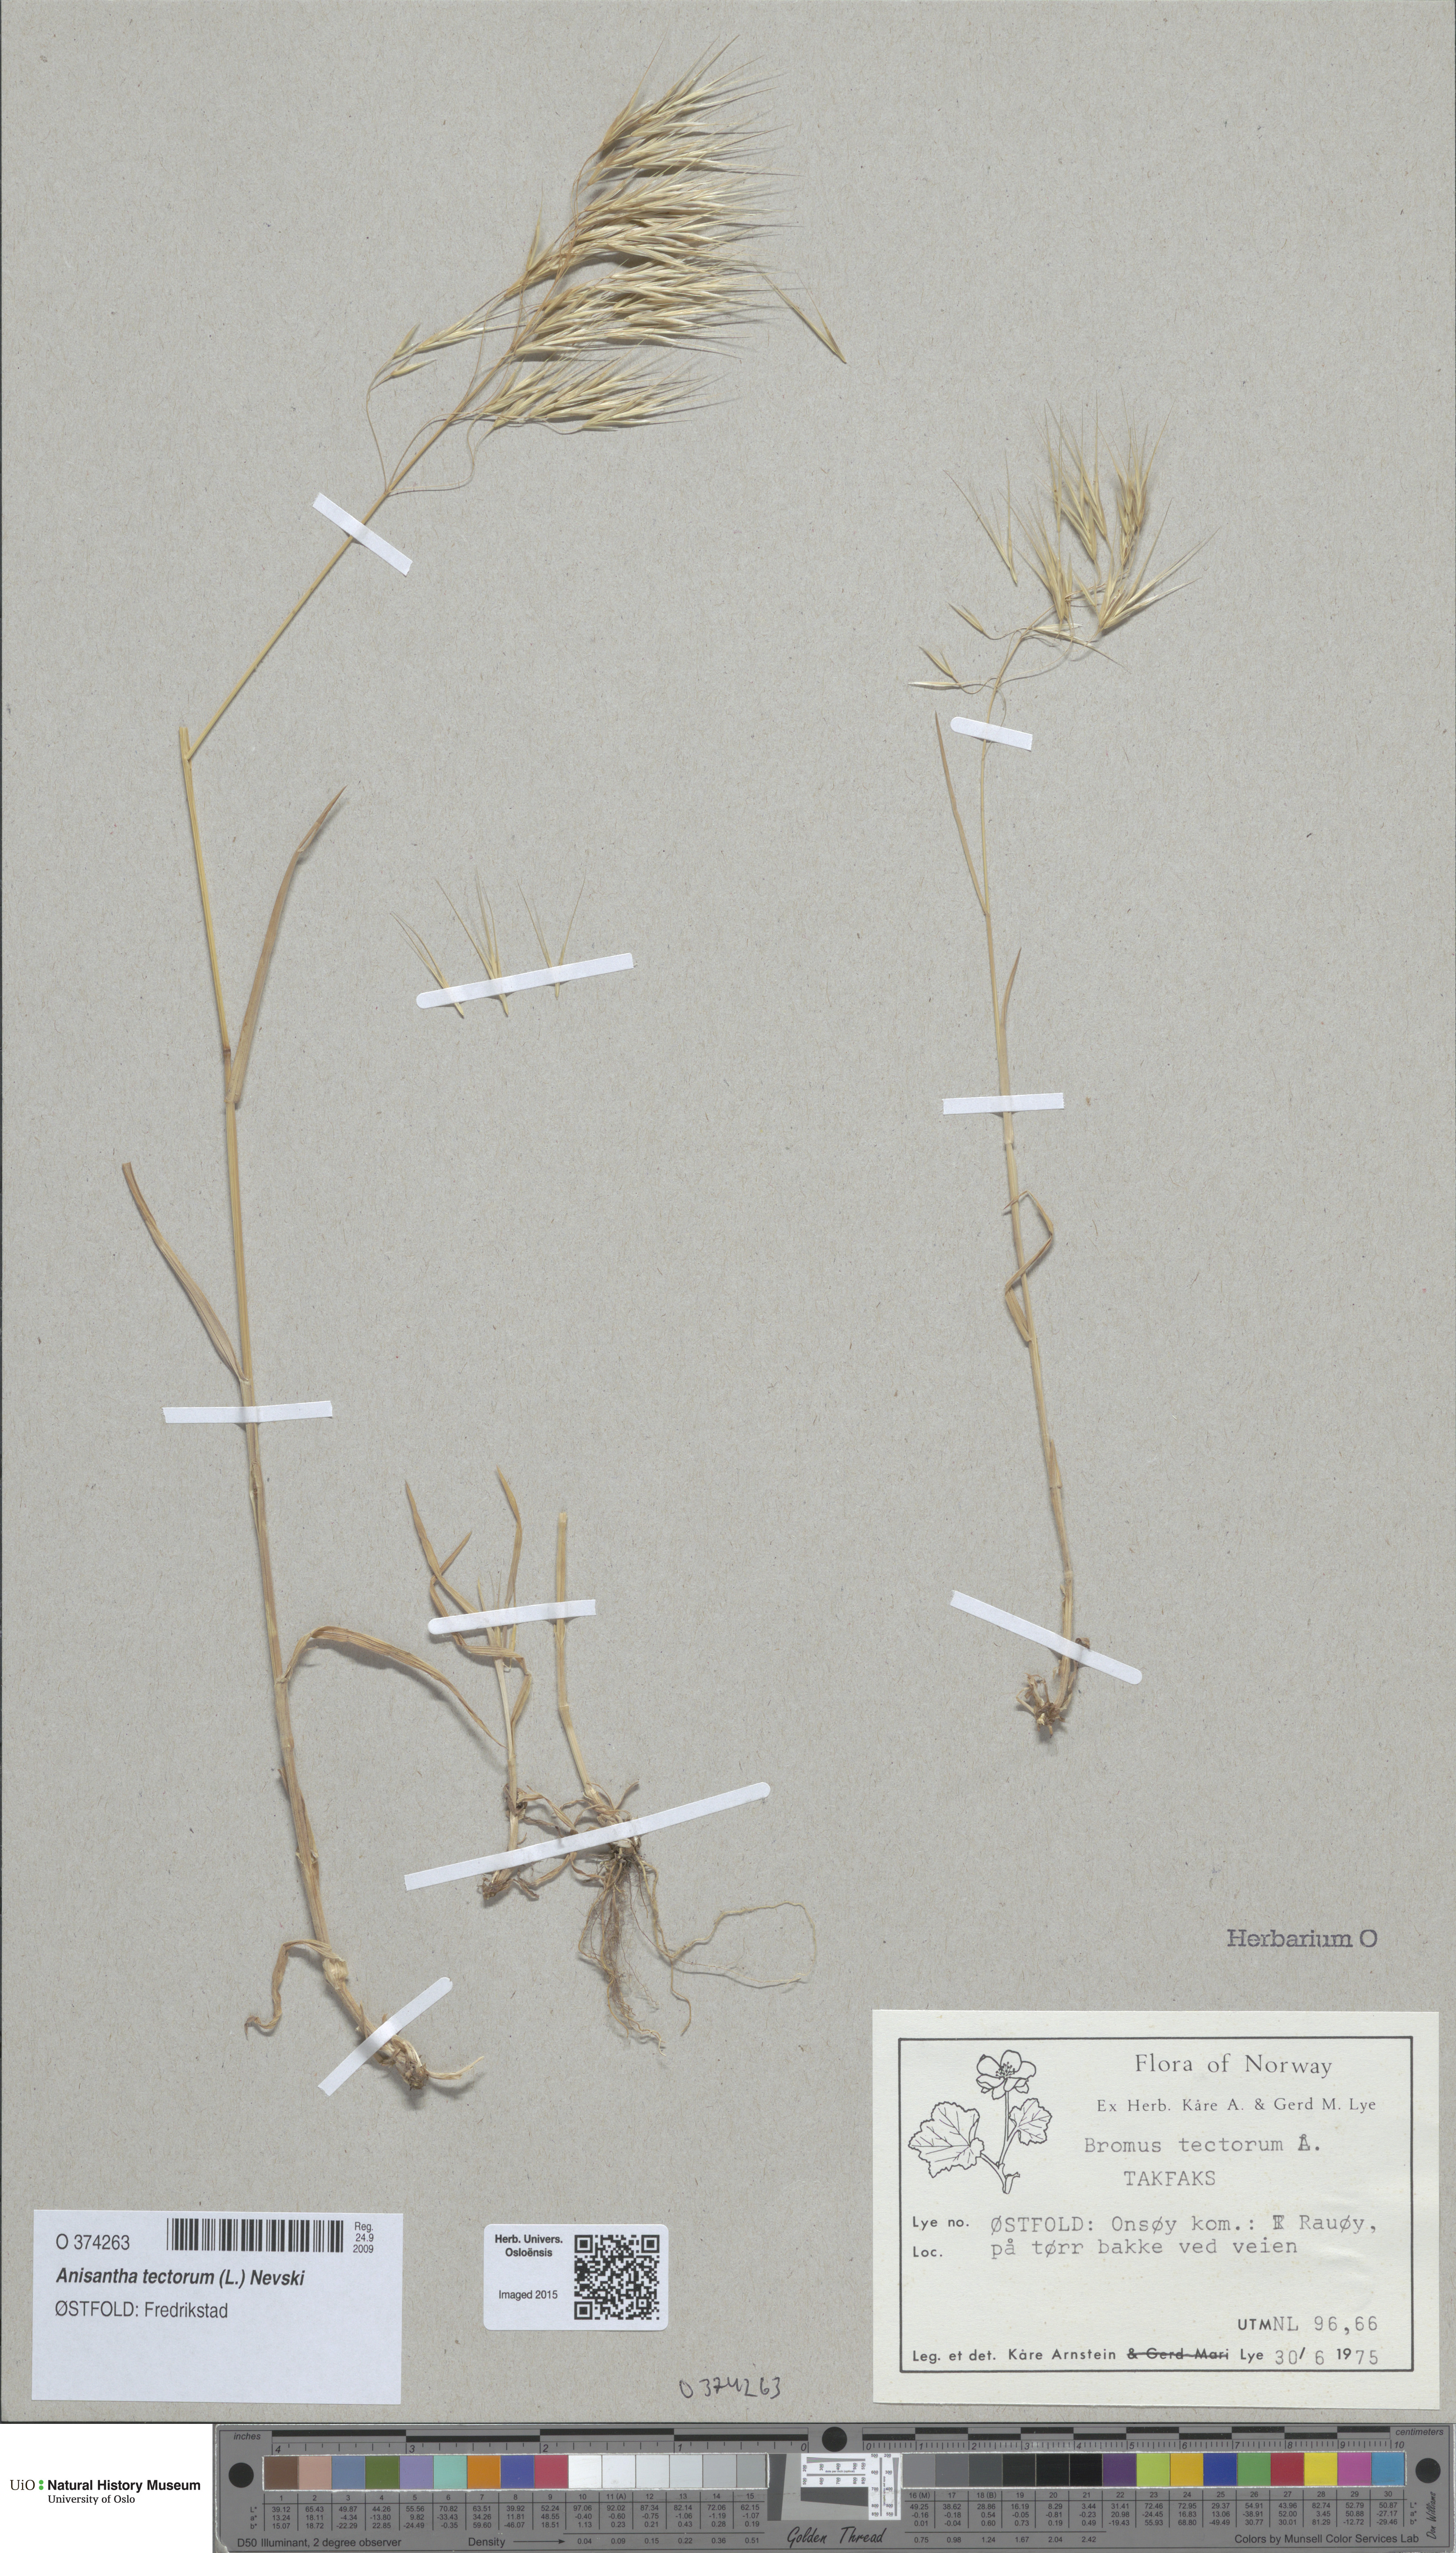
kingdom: Plantae
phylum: Tracheophyta
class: Liliopsida
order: Poales
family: Poaceae
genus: Bromus
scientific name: Bromus tectorum
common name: Cheatgrass
